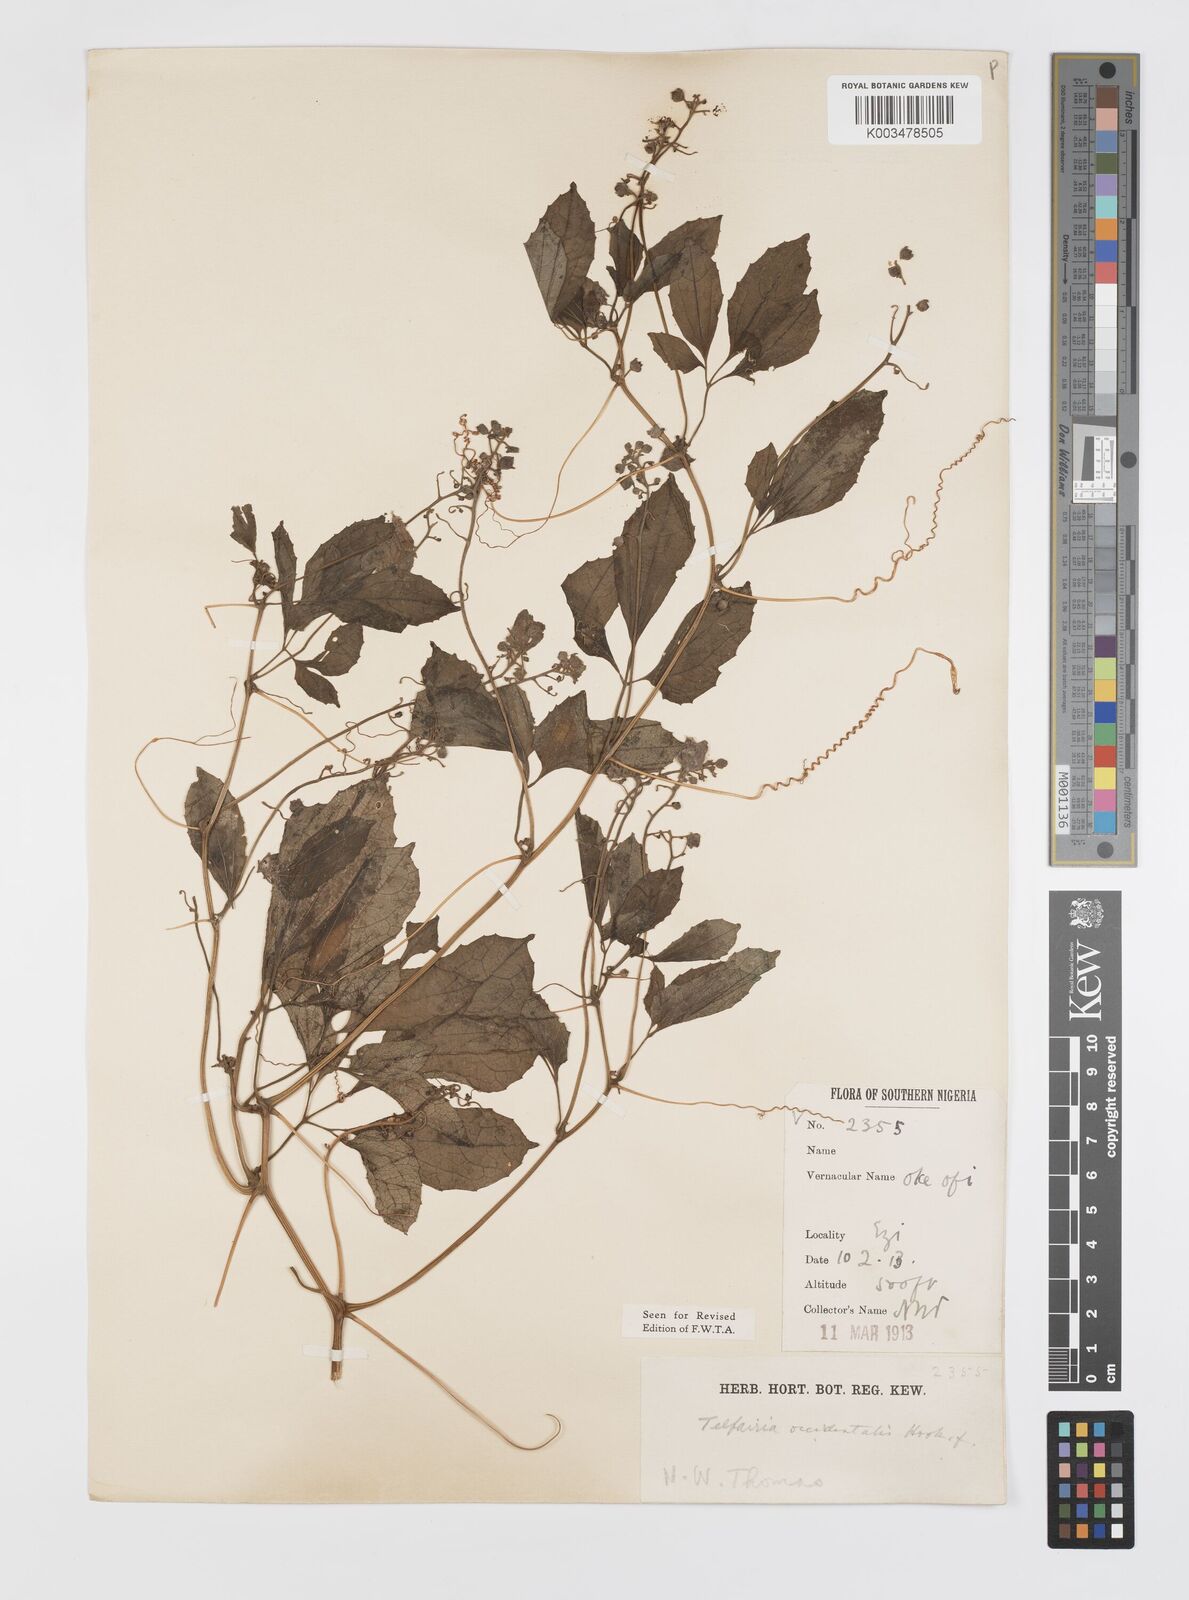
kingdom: Plantae
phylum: Tracheophyta
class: Magnoliopsida
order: Cucurbitales
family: Cucurbitaceae
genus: Telfairia
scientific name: Telfairia occidentalis
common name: Oysternut
